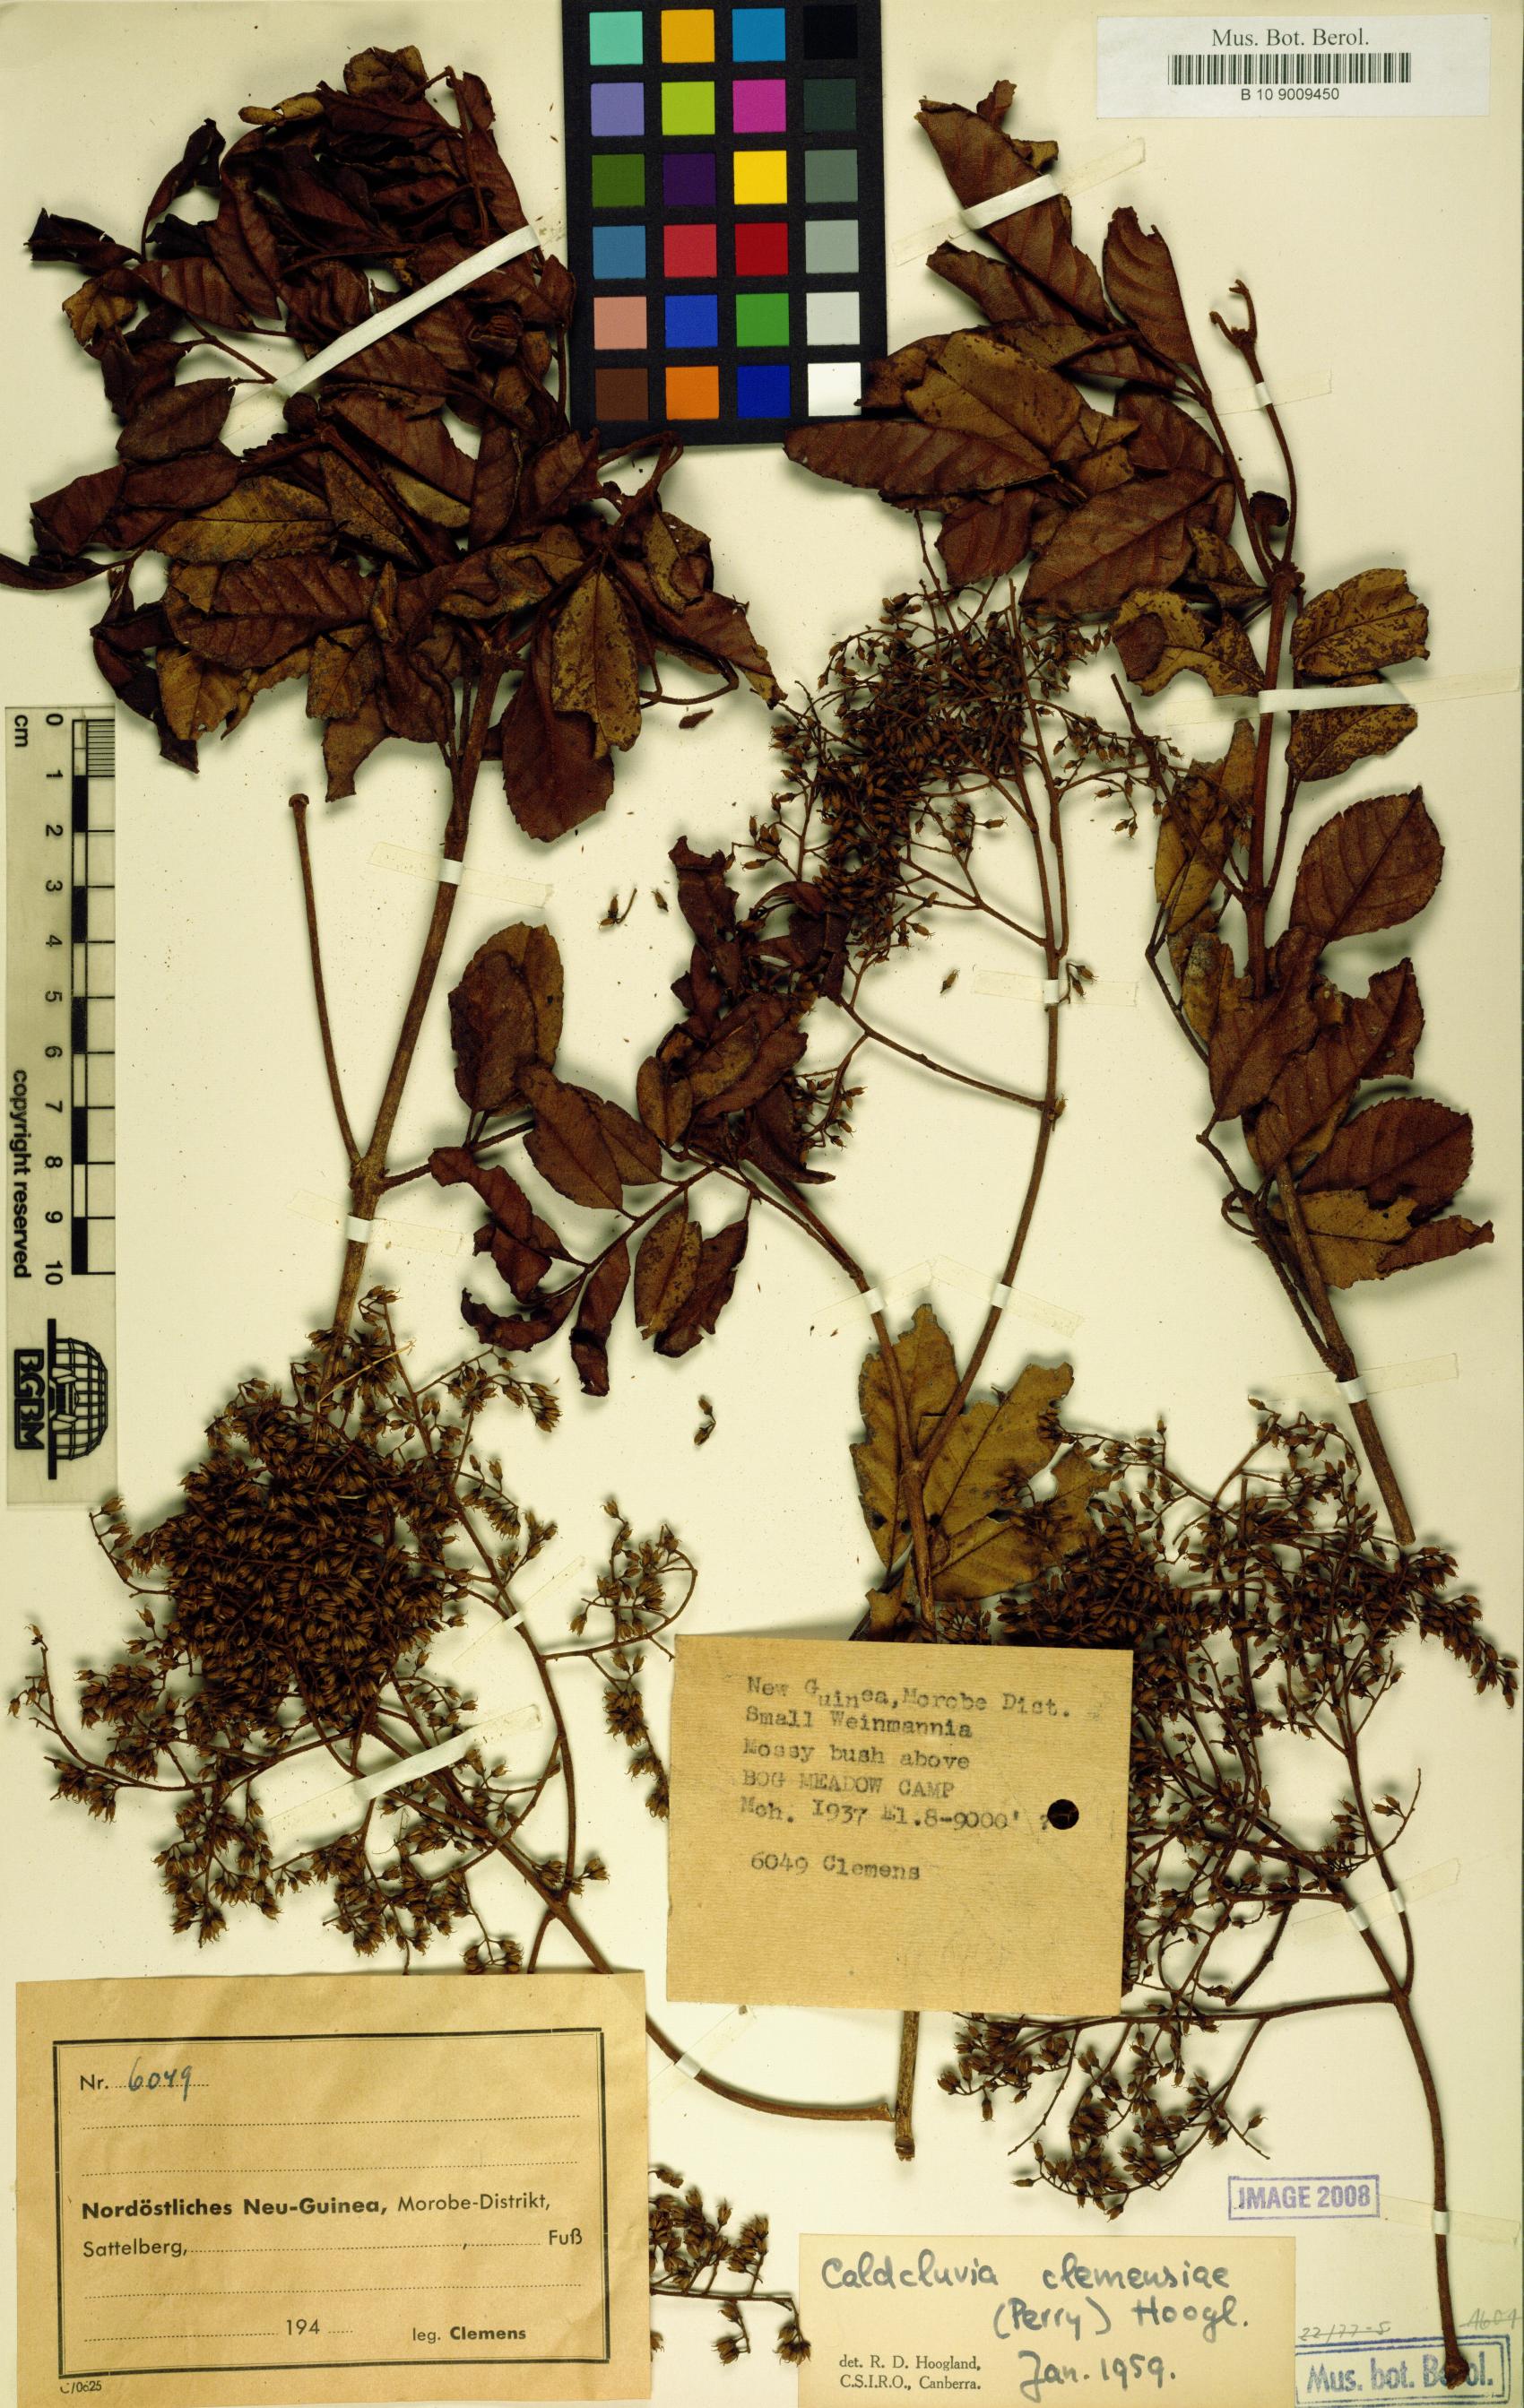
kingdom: Plantae
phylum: Tracheophyta
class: Magnoliopsida
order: Oxalidales
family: Cunoniaceae
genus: Ackama
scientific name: Ackama clemensiae
